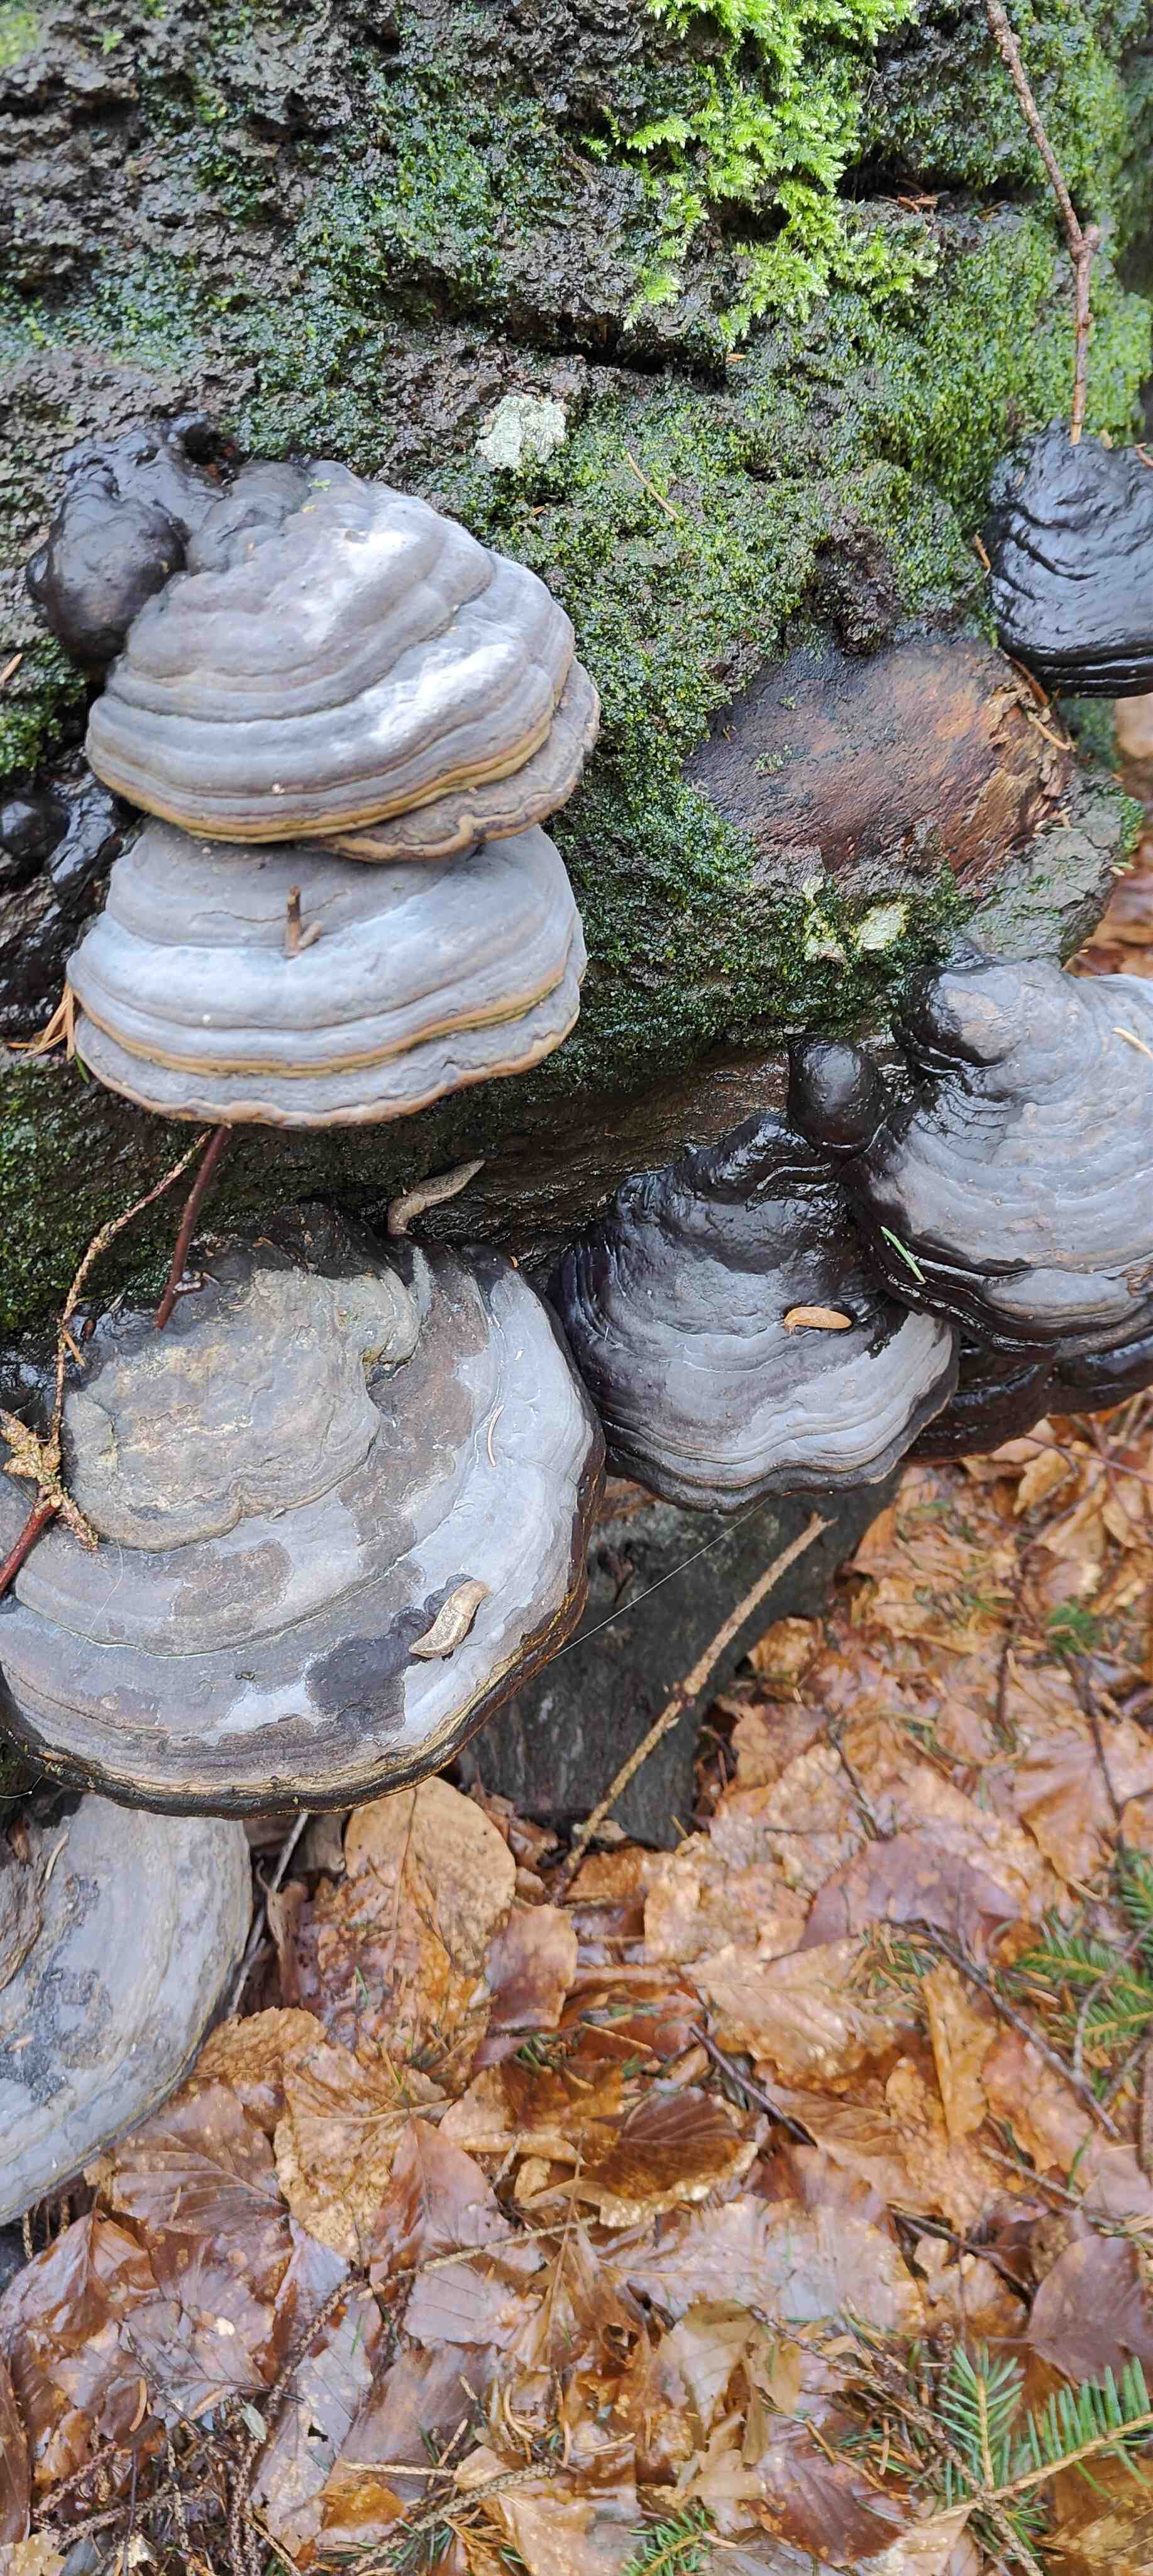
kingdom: Fungi
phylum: Basidiomycota
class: Agaricomycetes
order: Polyporales
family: Polyporaceae
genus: Fomes
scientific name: Fomes fomentarius
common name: tøndersvamp
